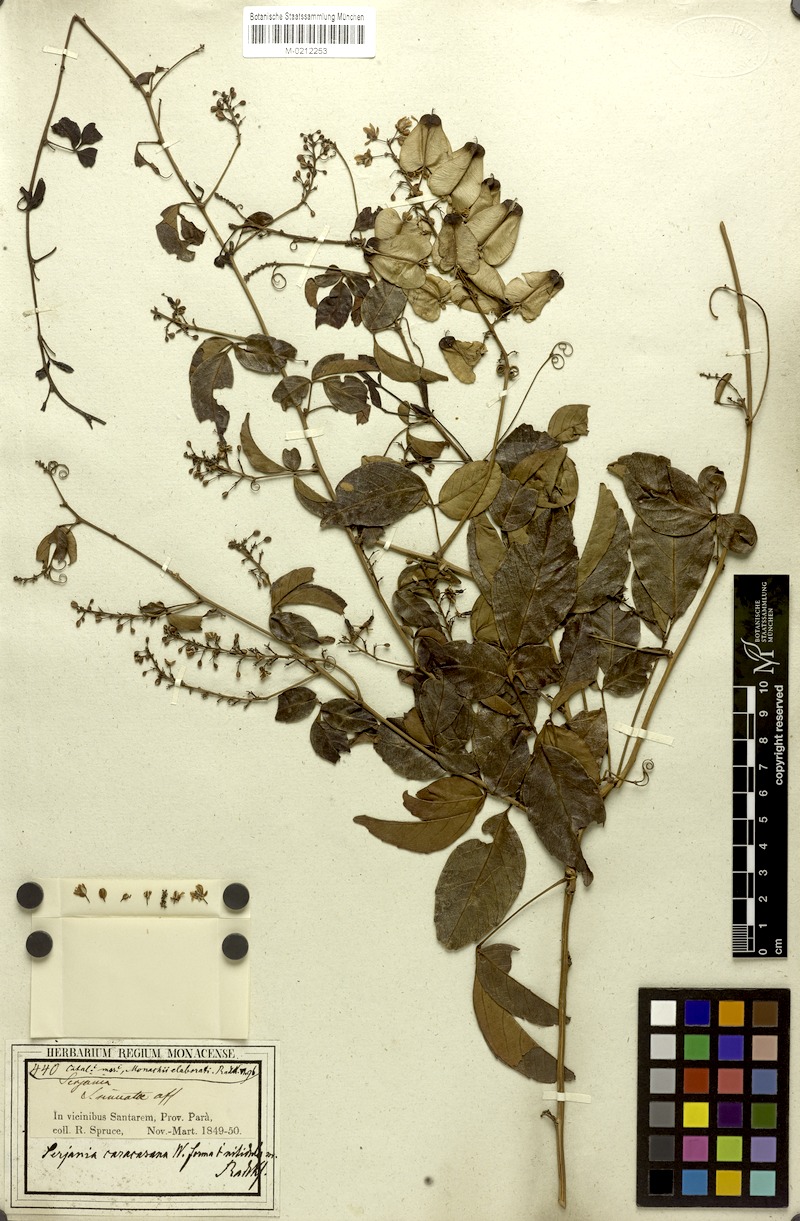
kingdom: Plantae
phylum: Tracheophyta
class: Magnoliopsida
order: Sapindales
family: Sapindaceae
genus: Serjania
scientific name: Serjania caracasana
